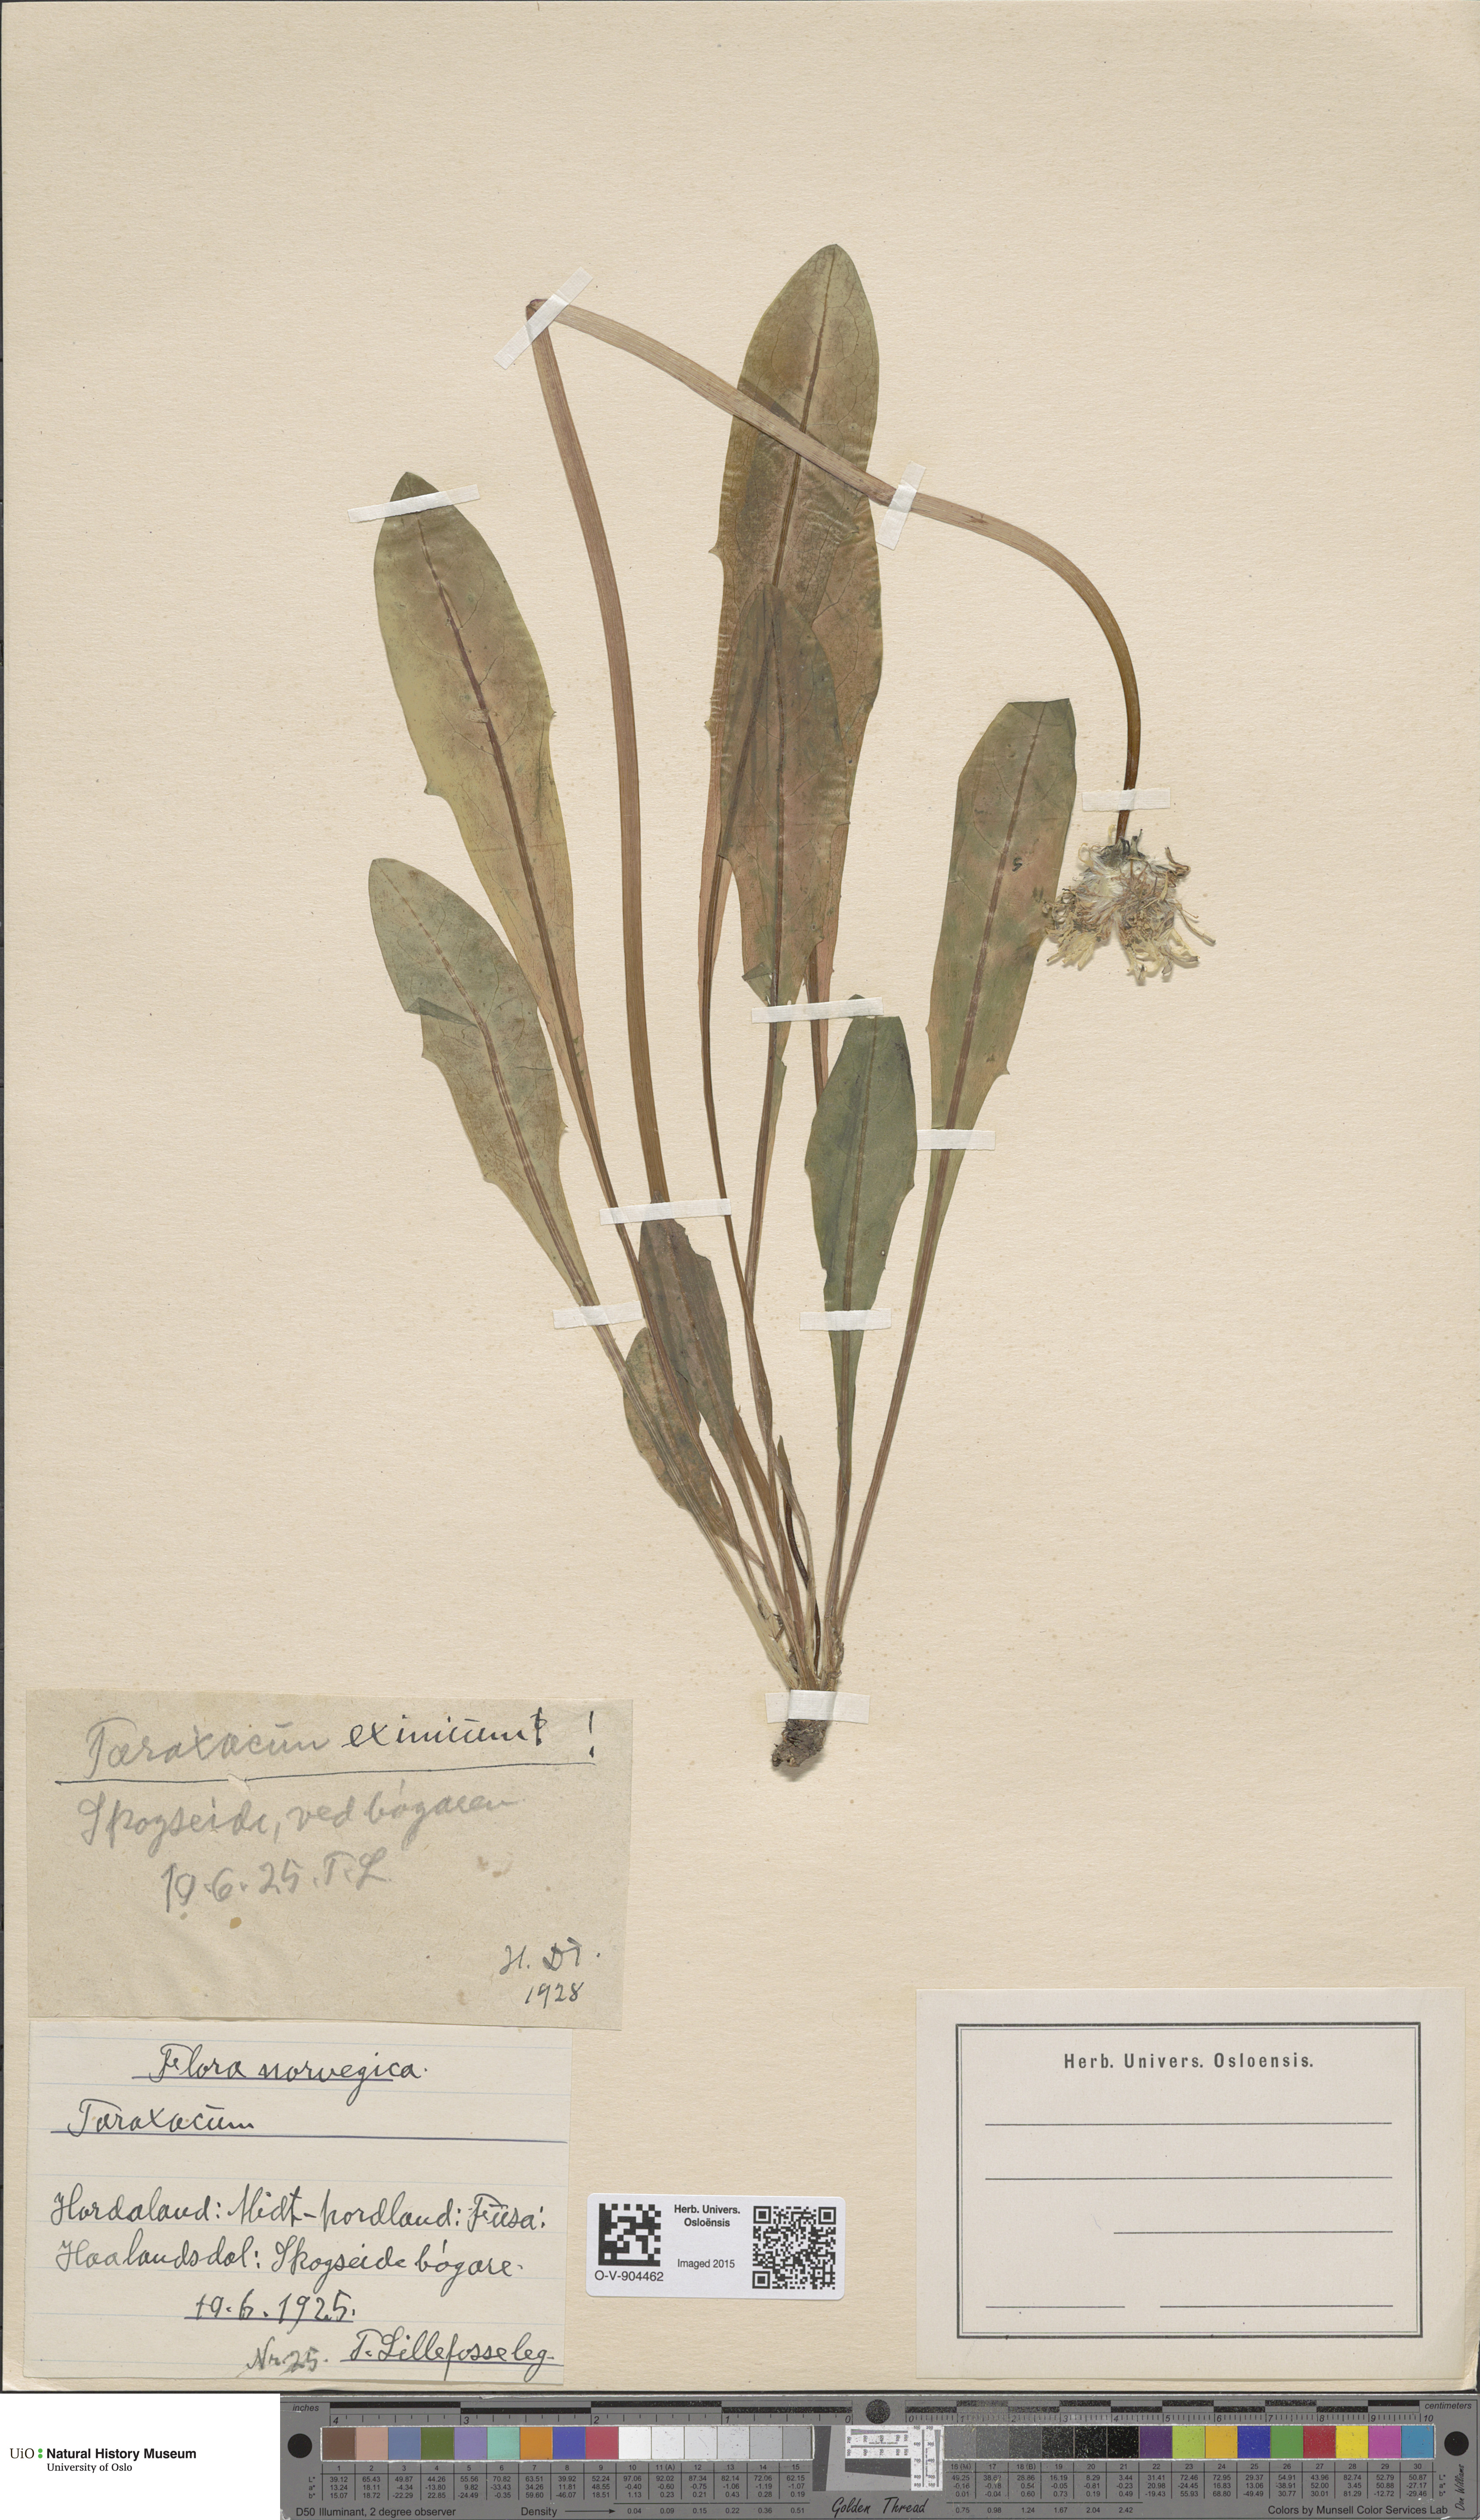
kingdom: Plantae
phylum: Tracheophyta
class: Magnoliopsida
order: Asterales
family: Asteraceae
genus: Taraxacum
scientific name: Taraxacum eximium
